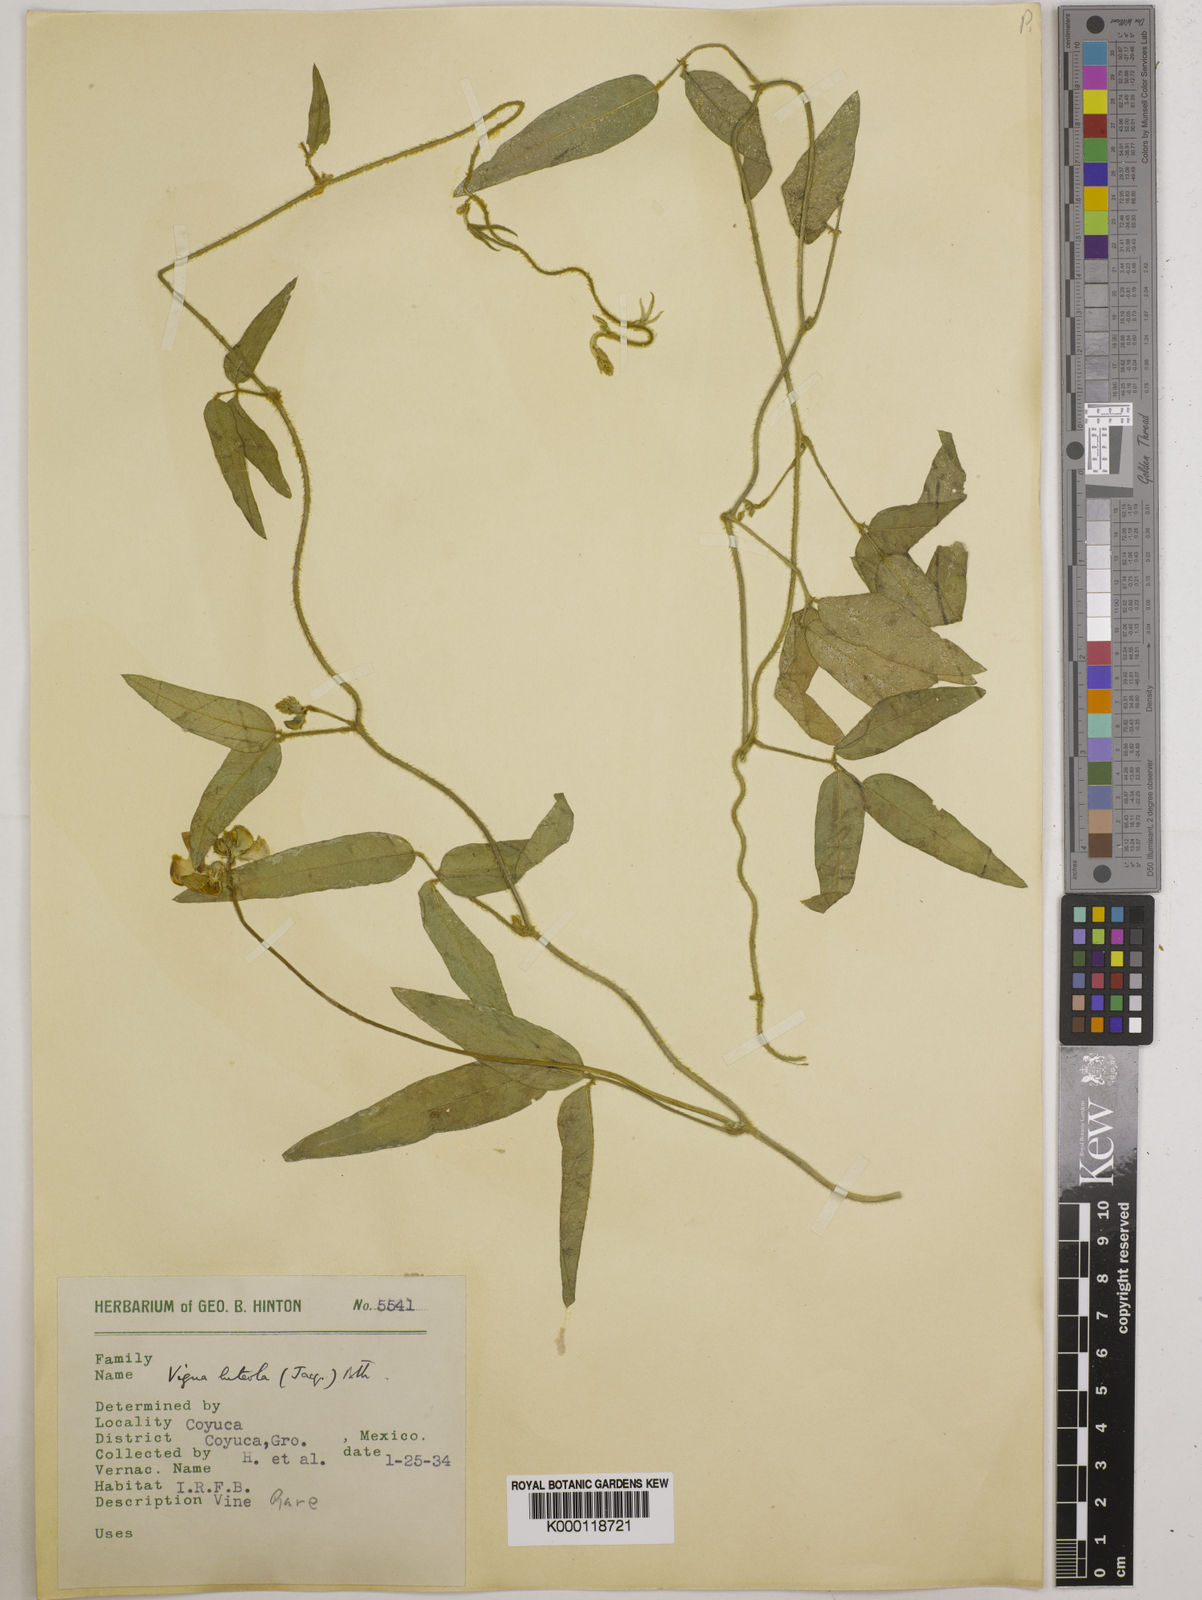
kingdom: Plantae
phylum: Tracheophyta
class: Magnoliopsida
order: Fabales
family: Fabaceae
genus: Vigna
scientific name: Vigna luteola
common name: Hairypod cowpea
